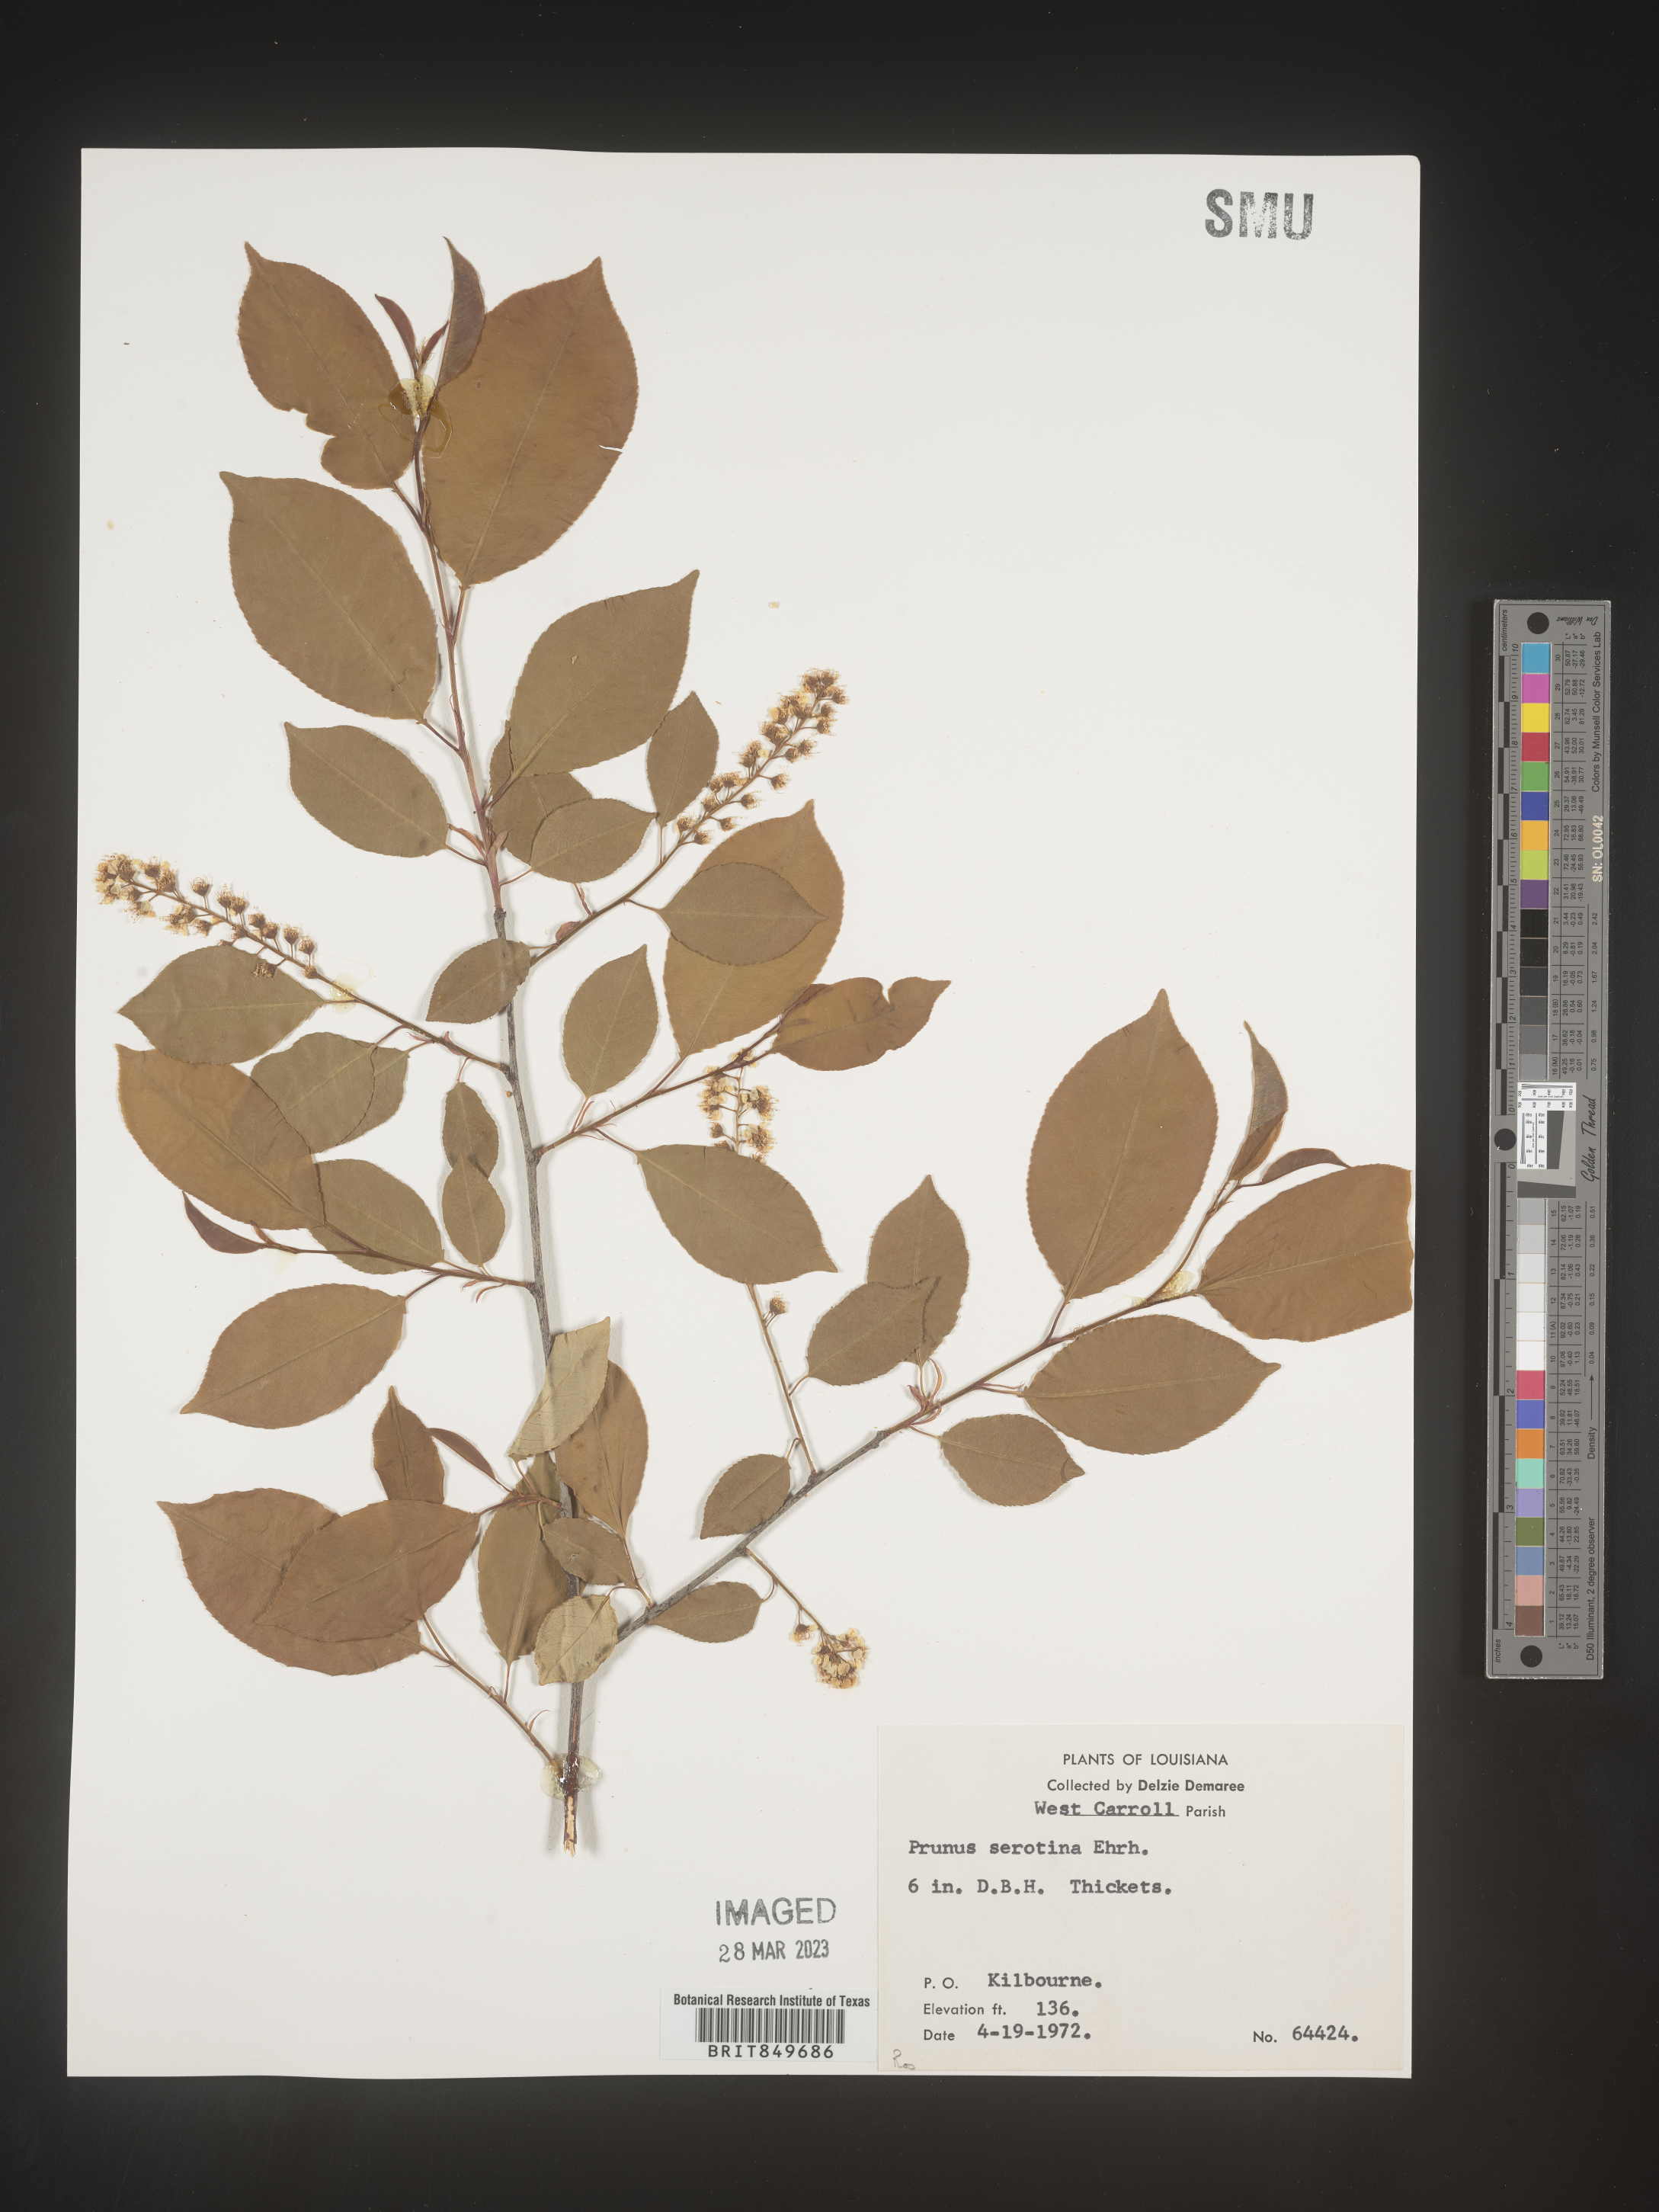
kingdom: Plantae
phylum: Tracheophyta
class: Magnoliopsida
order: Rosales
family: Rosaceae
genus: Prunus
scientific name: Prunus serotina
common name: Black cherry
